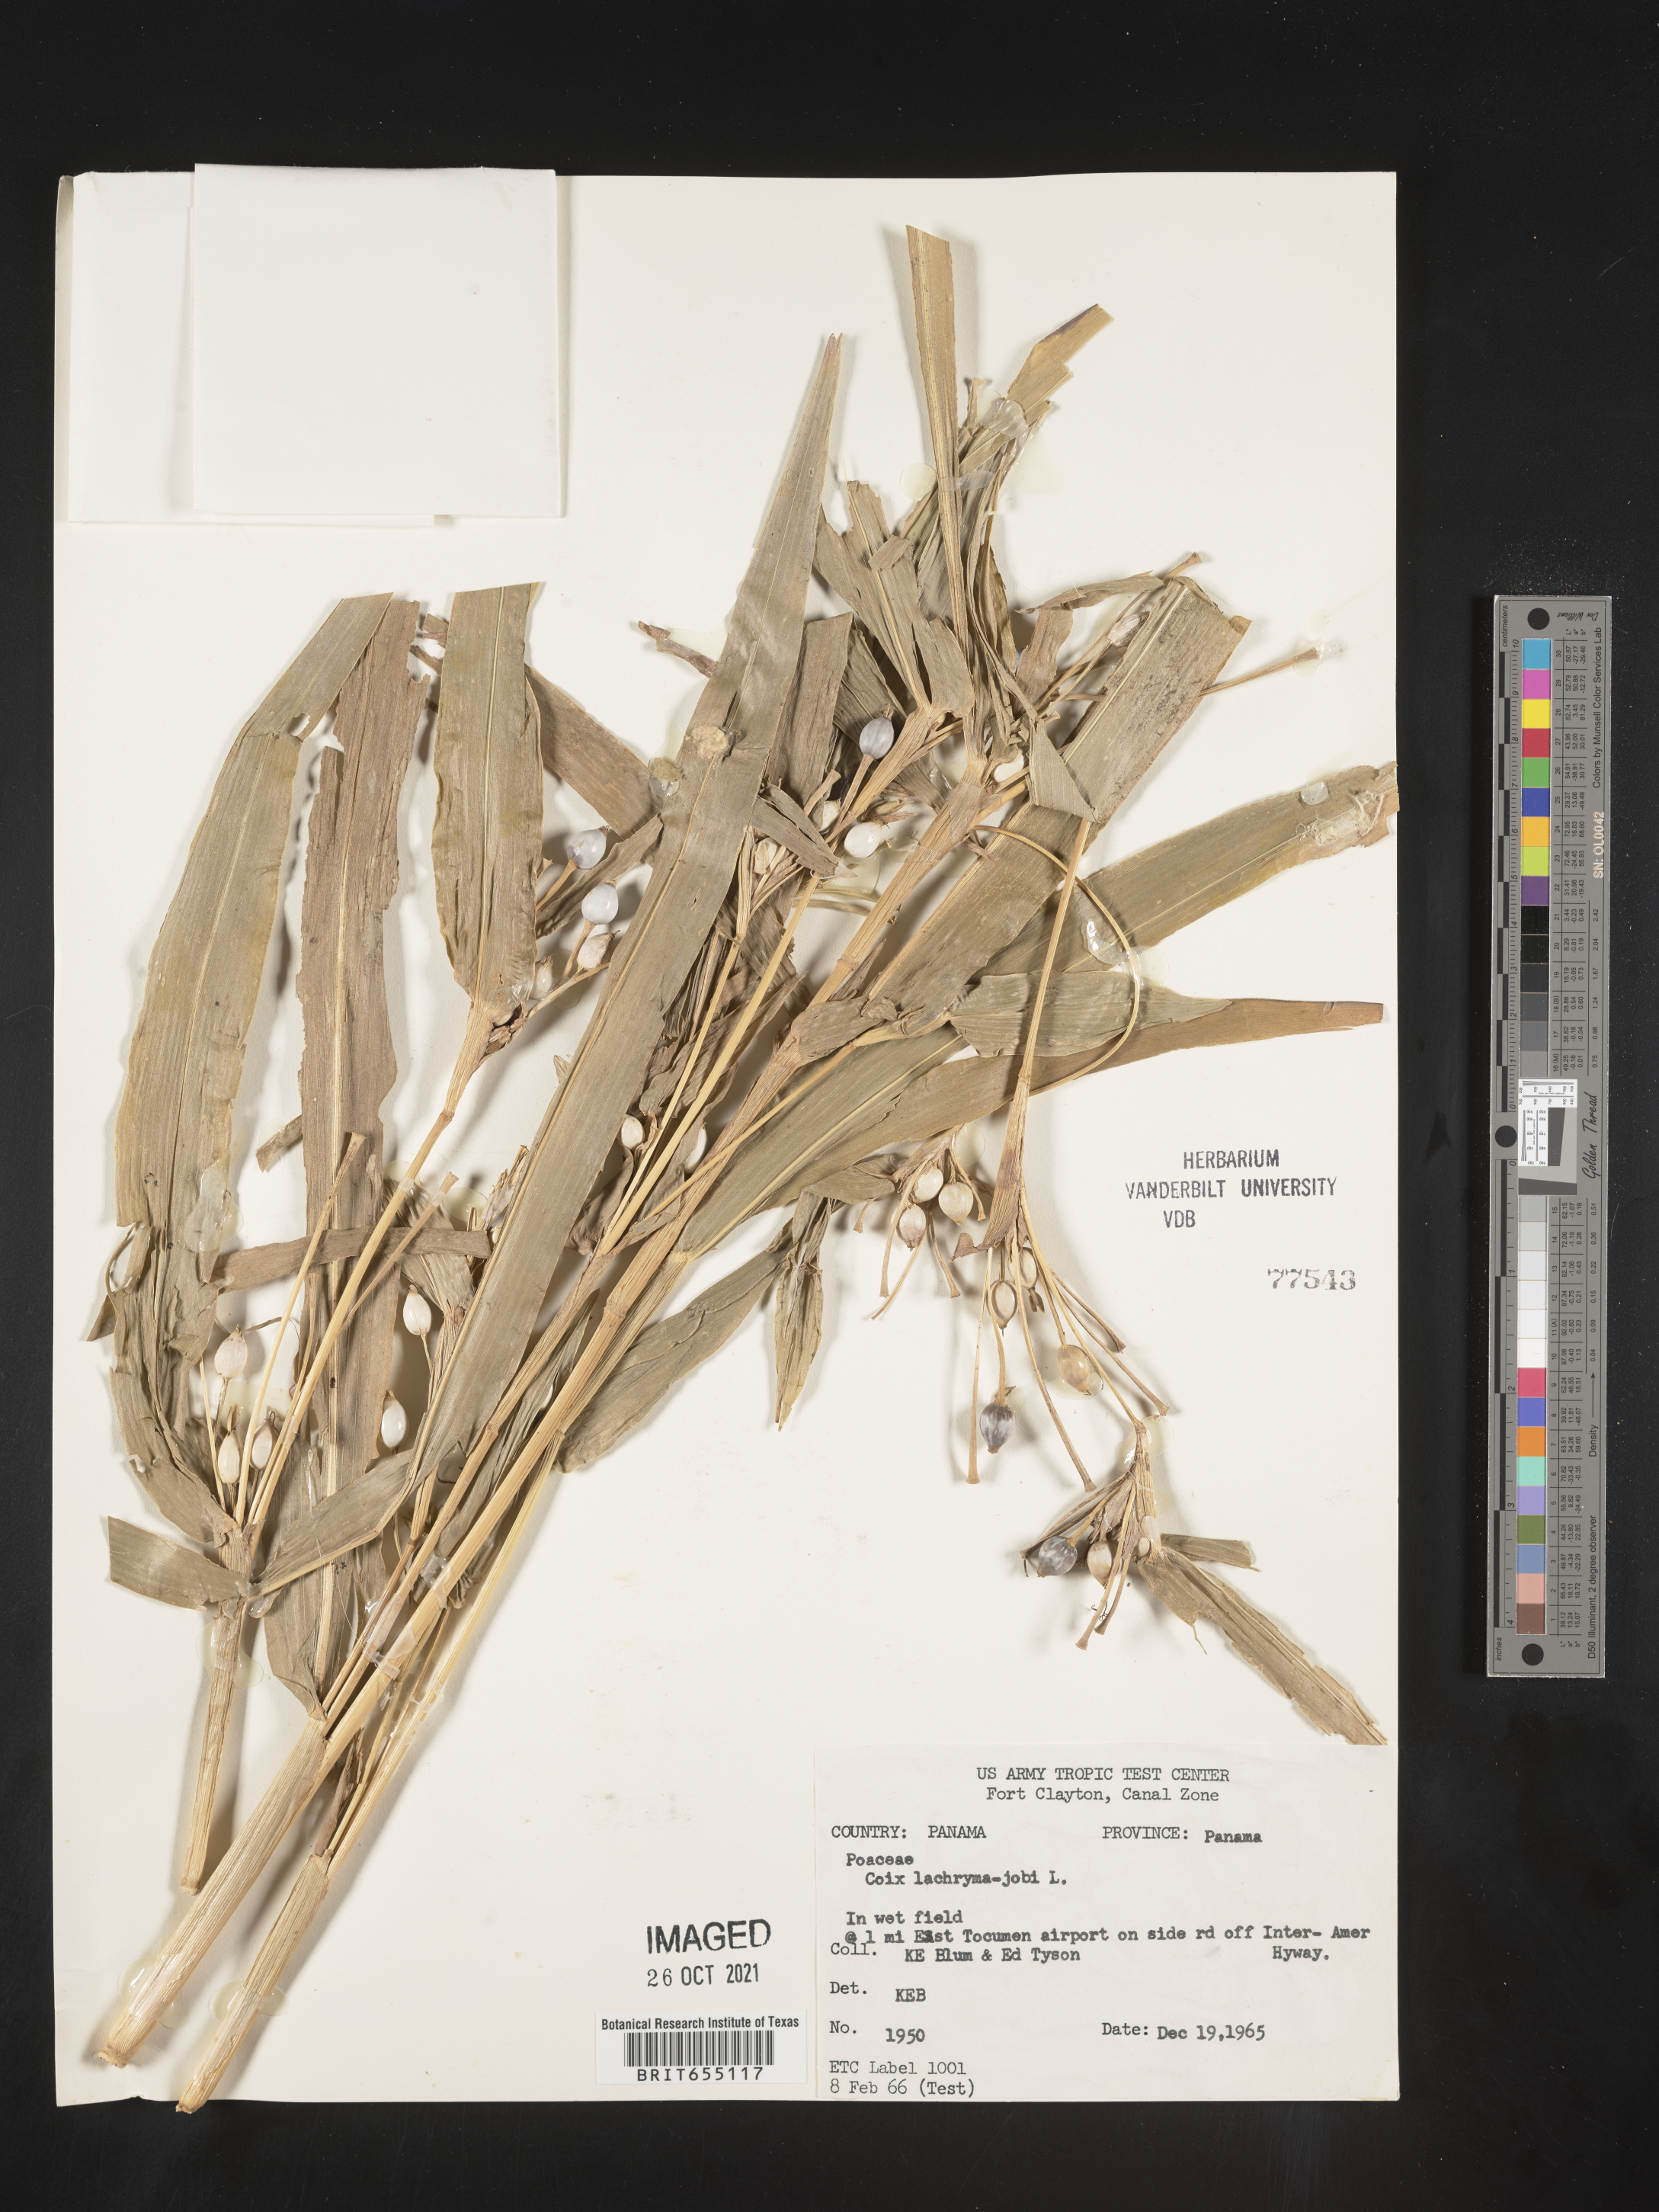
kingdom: Plantae
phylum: Tracheophyta
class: Liliopsida
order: Poales
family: Poaceae
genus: Coix
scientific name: Coix
